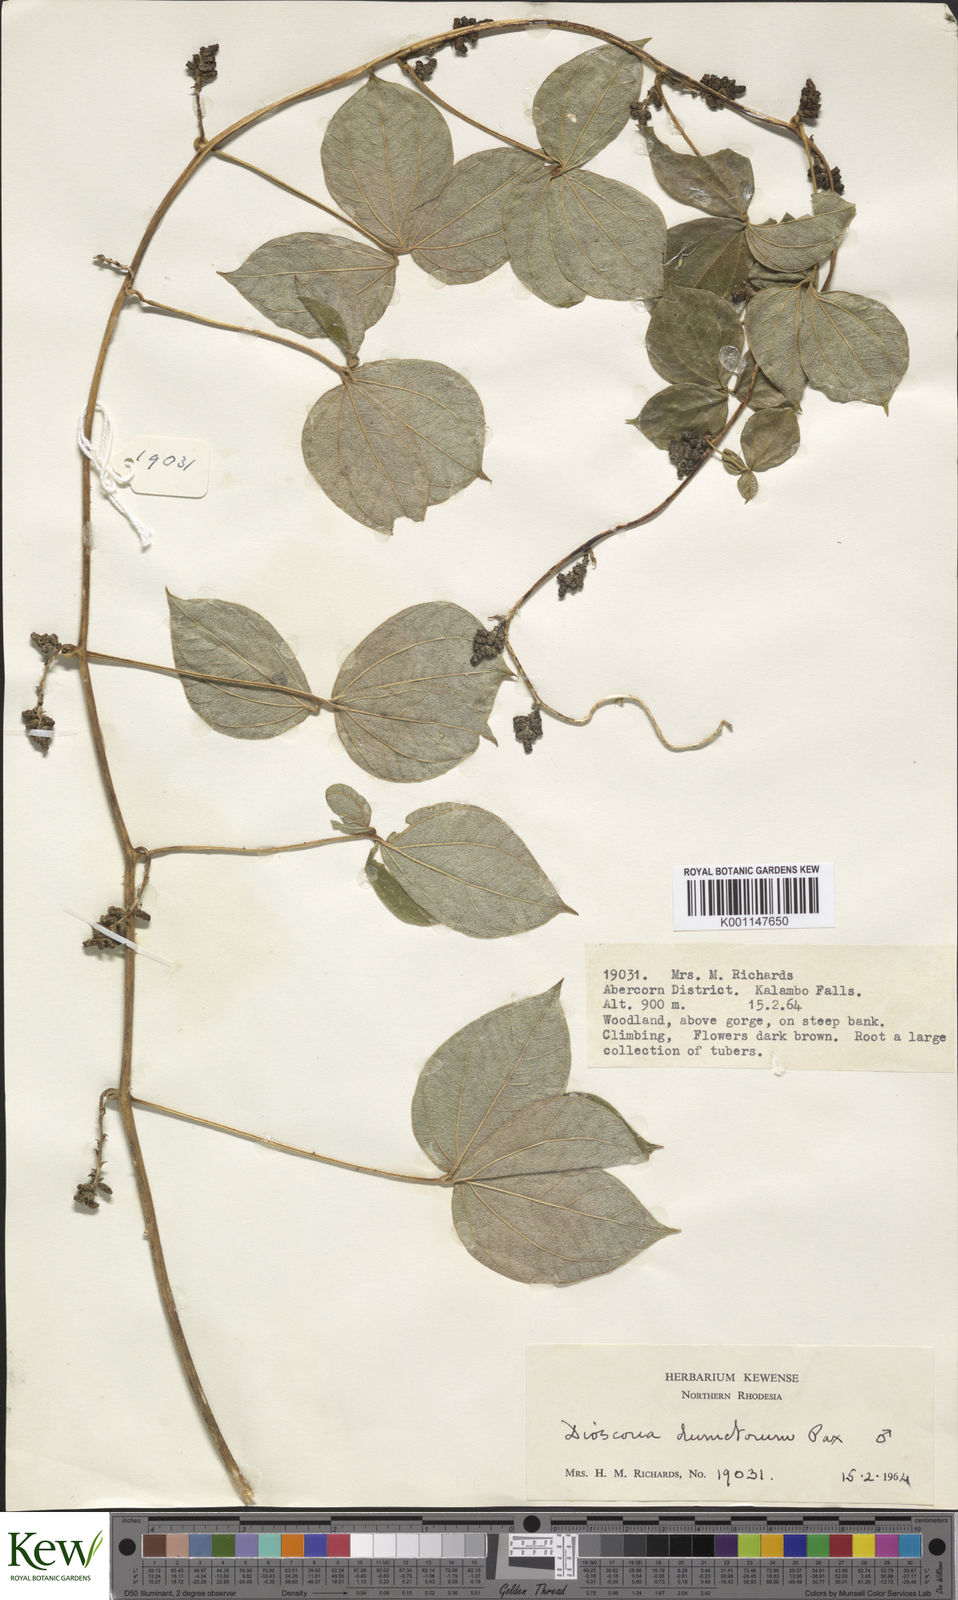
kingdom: Plantae
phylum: Tracheophyta
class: Liliopsida
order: Dioscoreales
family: Dioscoreaceae
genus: Dioscorea
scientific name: Dioscorea dumetorum
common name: African bitter yam
